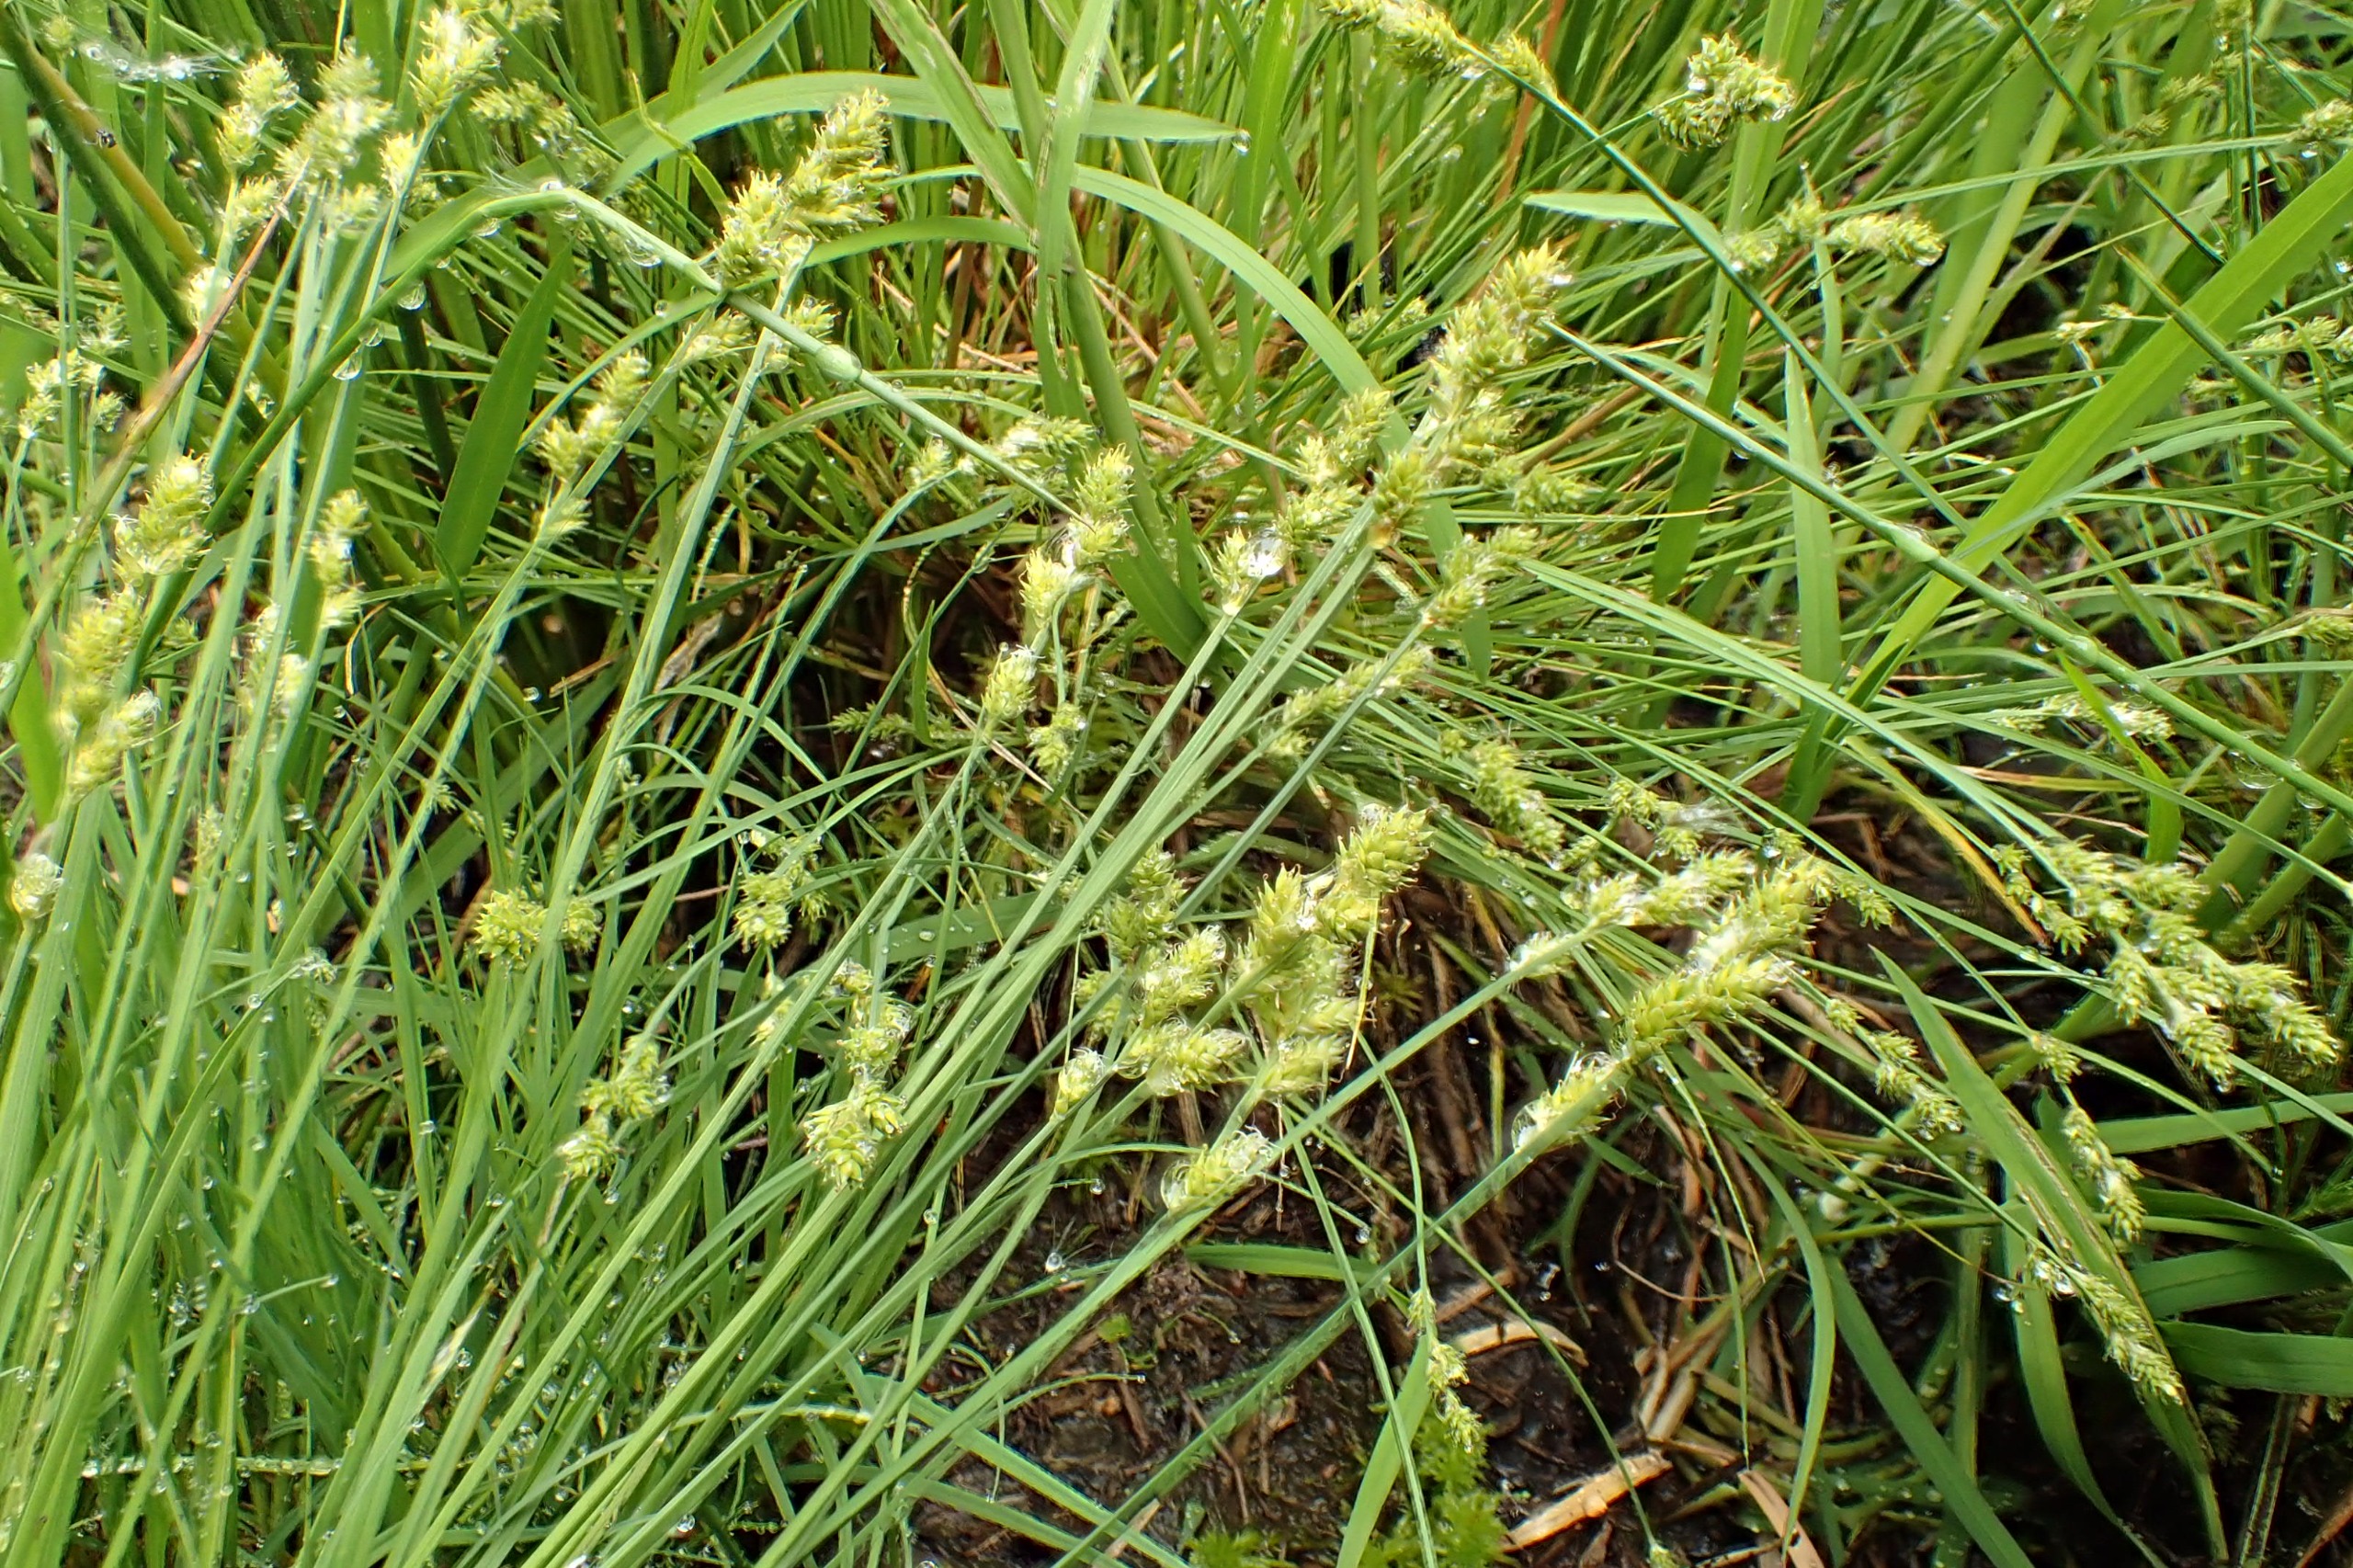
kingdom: Plantae
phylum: Tracheophyta
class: Liliopsida
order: Poales
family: Cyperaceae
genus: Carex
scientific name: Carex canescens
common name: Grå star
